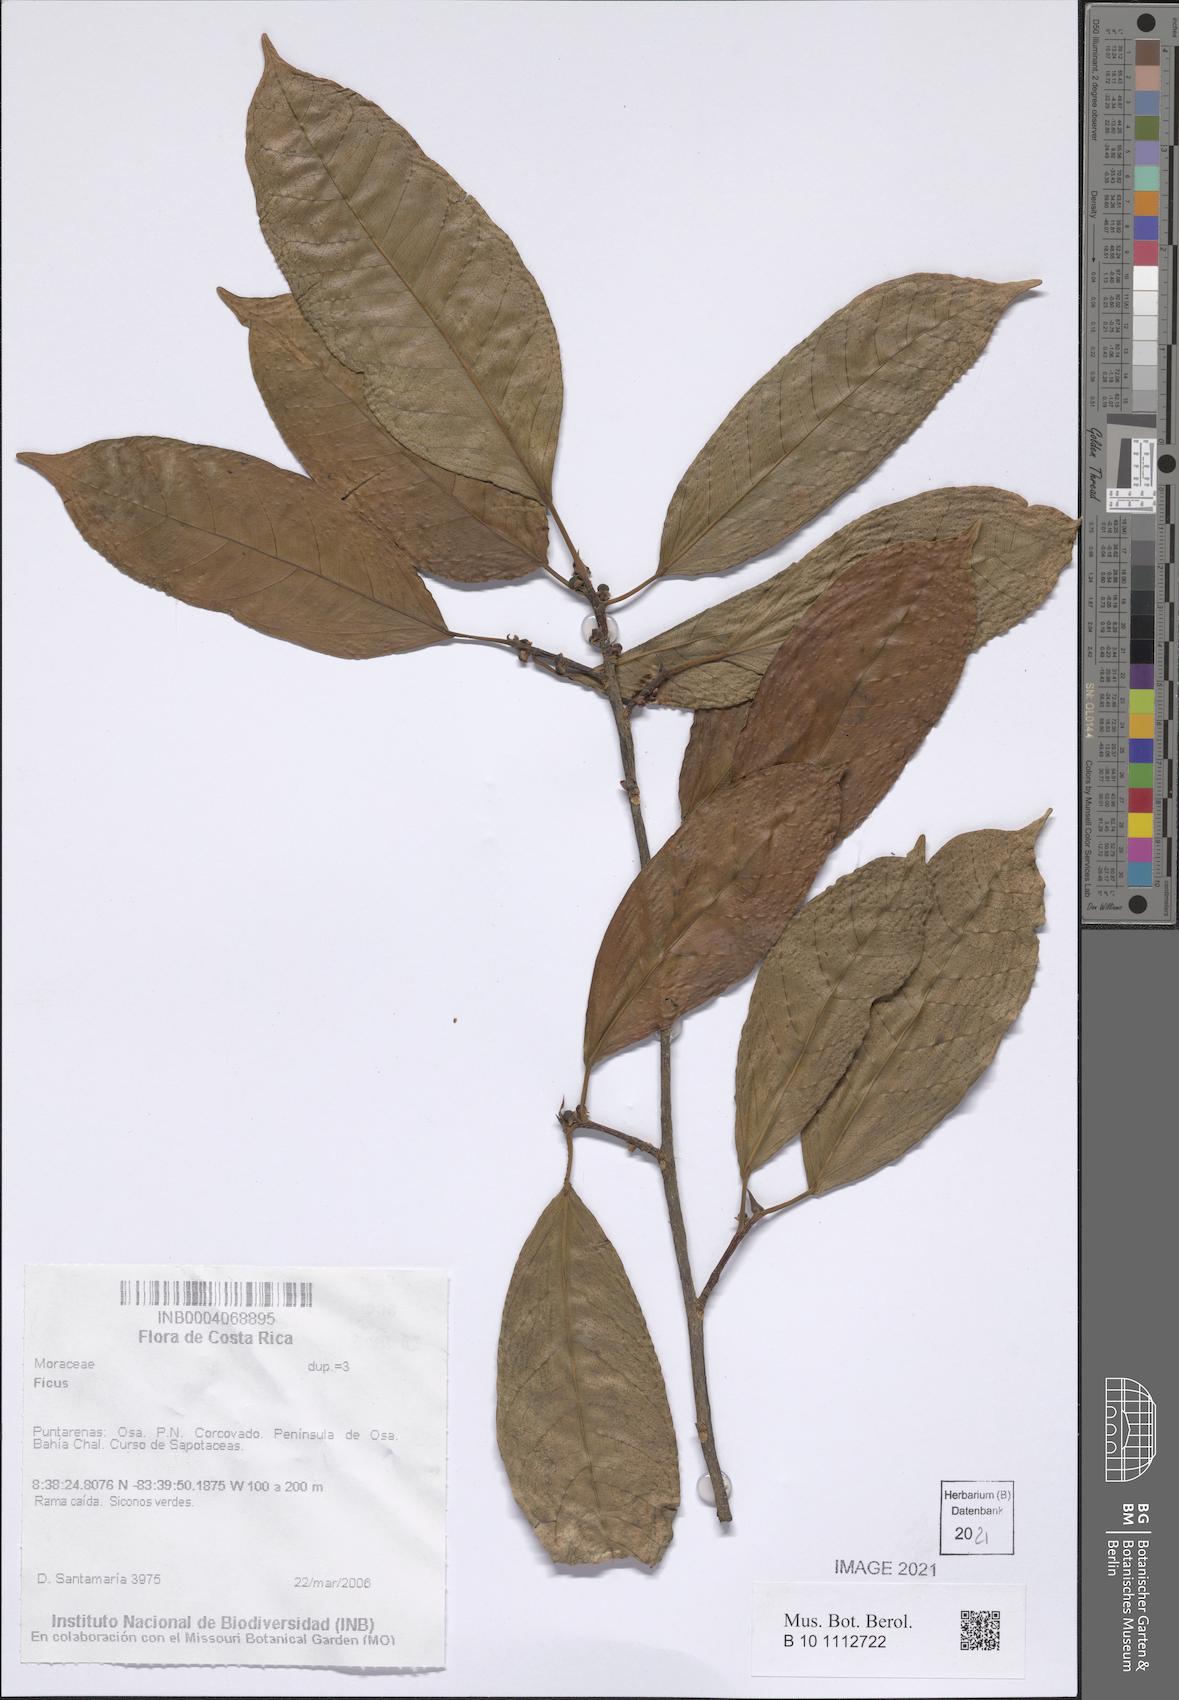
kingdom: Plantae
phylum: Tracheophyta
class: Magnoliopsida
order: Rosales
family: Moraceae
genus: Ficus
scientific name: Ficus
